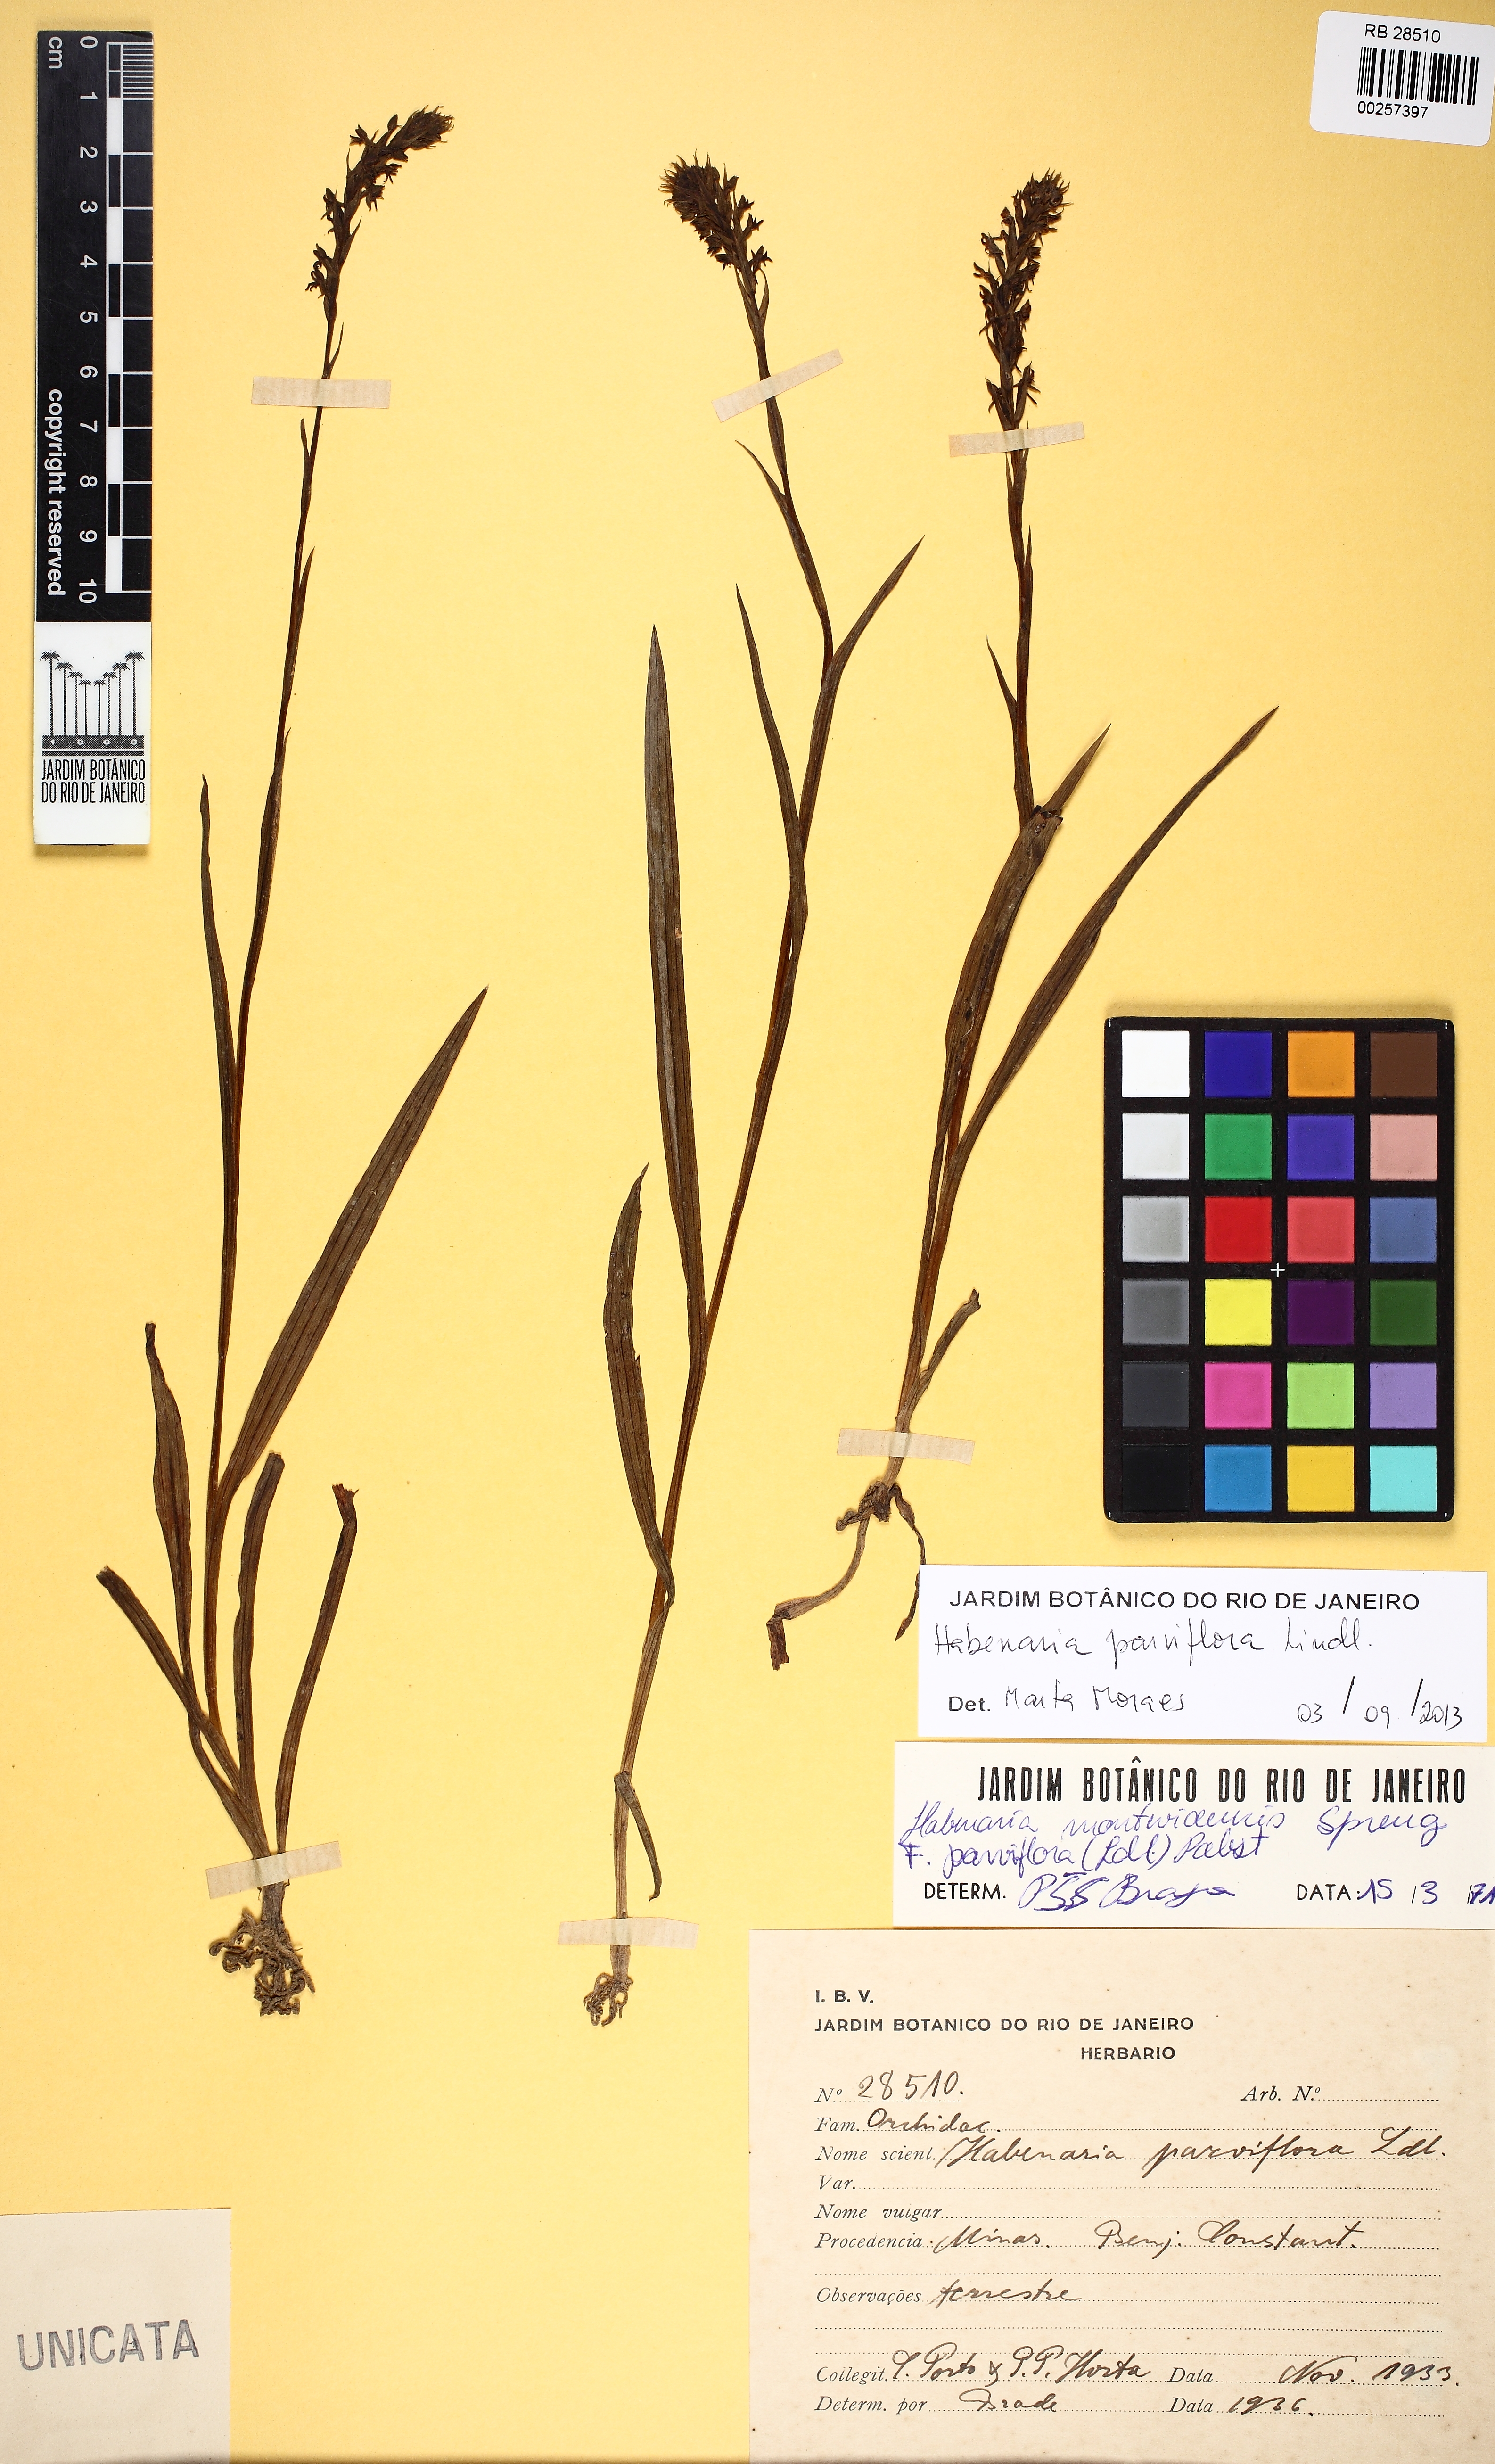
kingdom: Plantae
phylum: Tracheophyta
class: Liliopsida
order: Asparagales
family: Orchidaceae
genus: Habenaria
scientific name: Habenaria parviflora
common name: Small flowered habenaria
